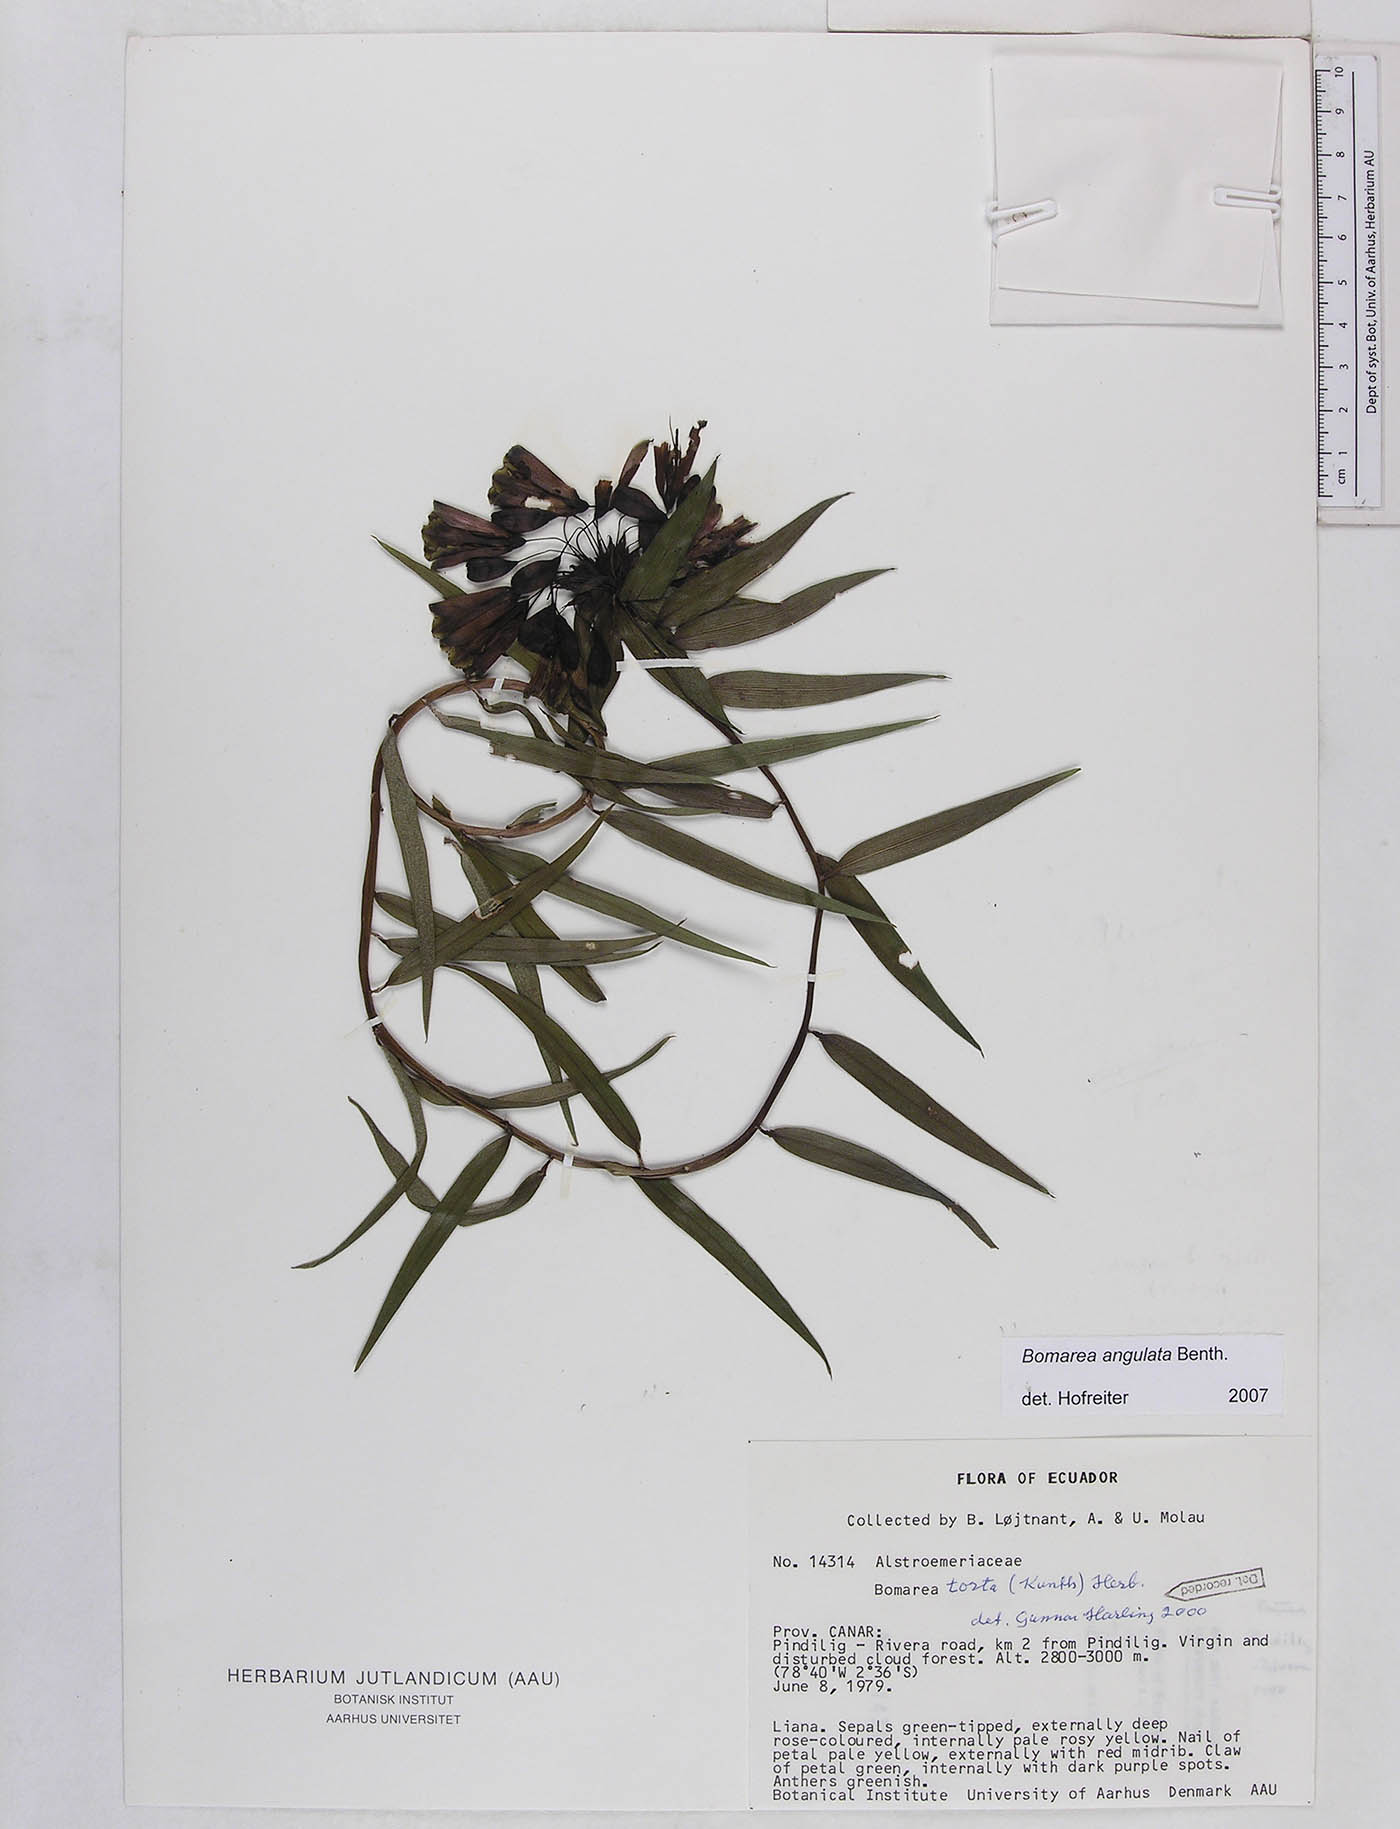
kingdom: Plantae
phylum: Tracheophyta
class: Liliopsida
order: Liliales
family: Alstroemeriaceae
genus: Bomarea
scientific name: Bomarea angulata
